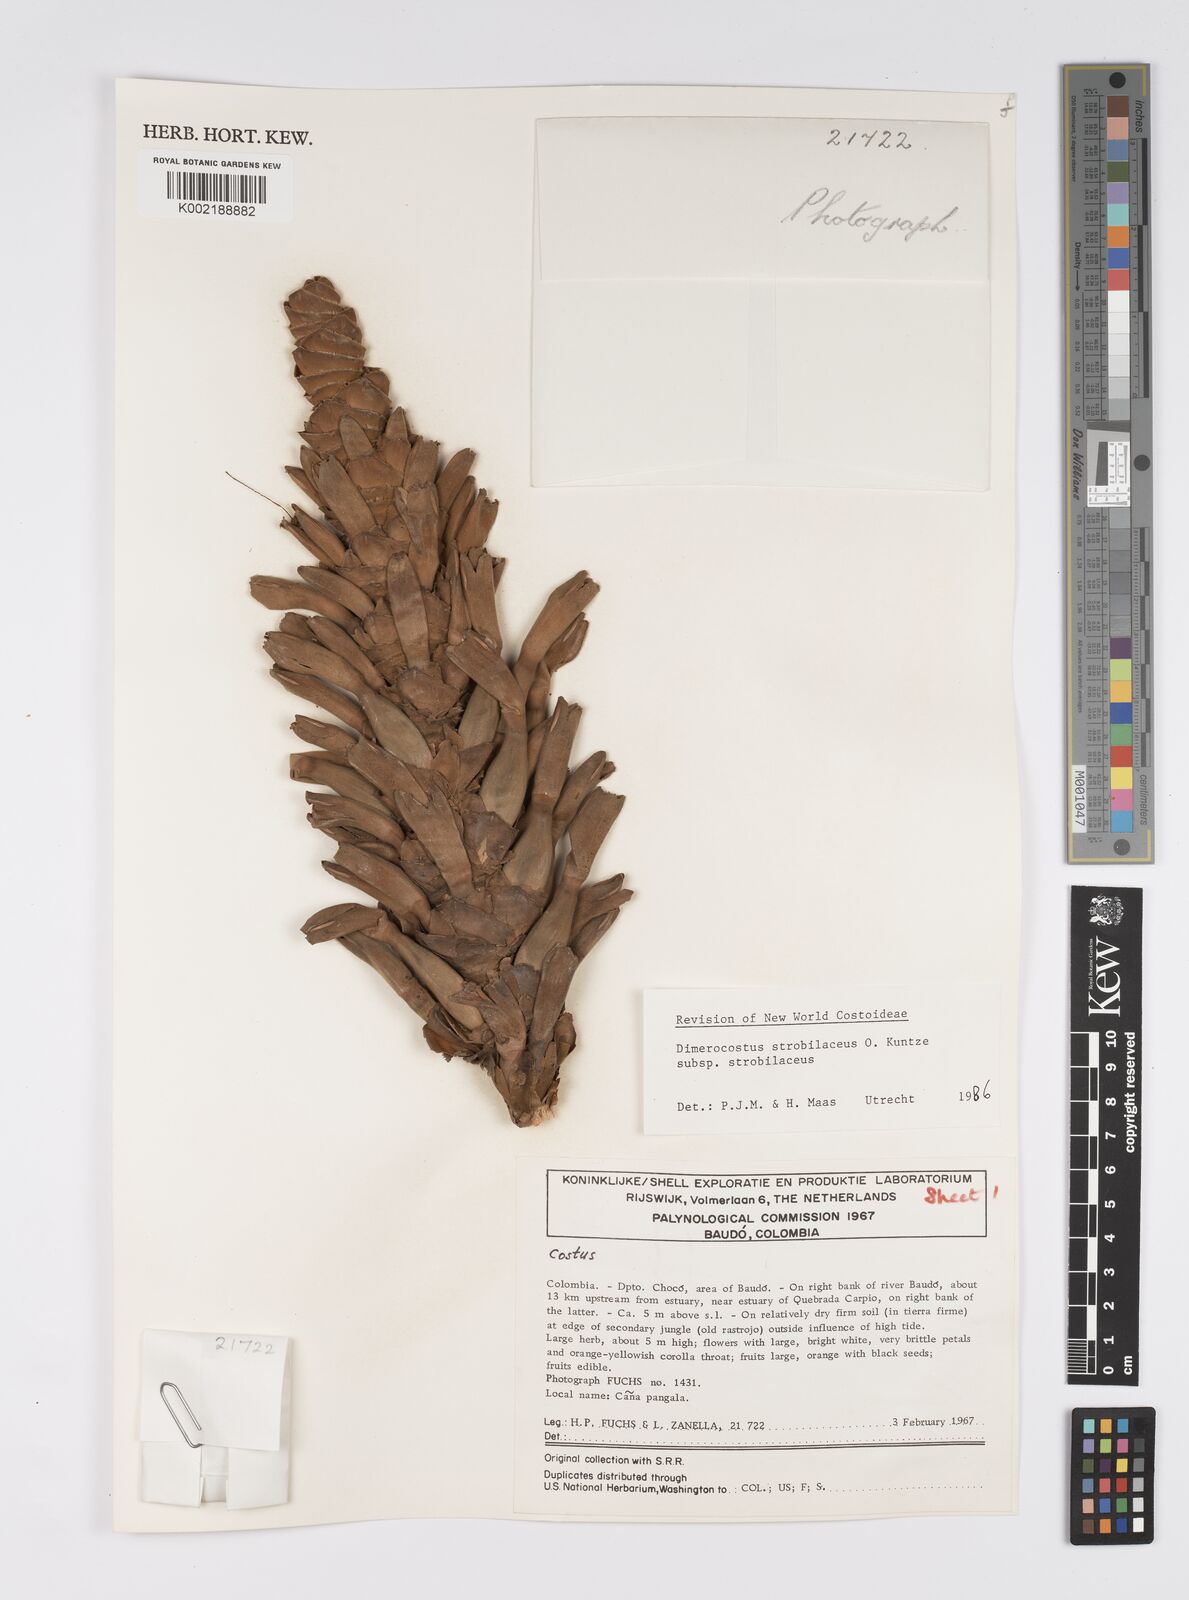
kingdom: Plantae
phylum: Tracheophyta
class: Liliopsida
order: Zingiberales
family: Costaceae
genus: Dimerocostus
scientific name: Dimerocostus strobilaceus
